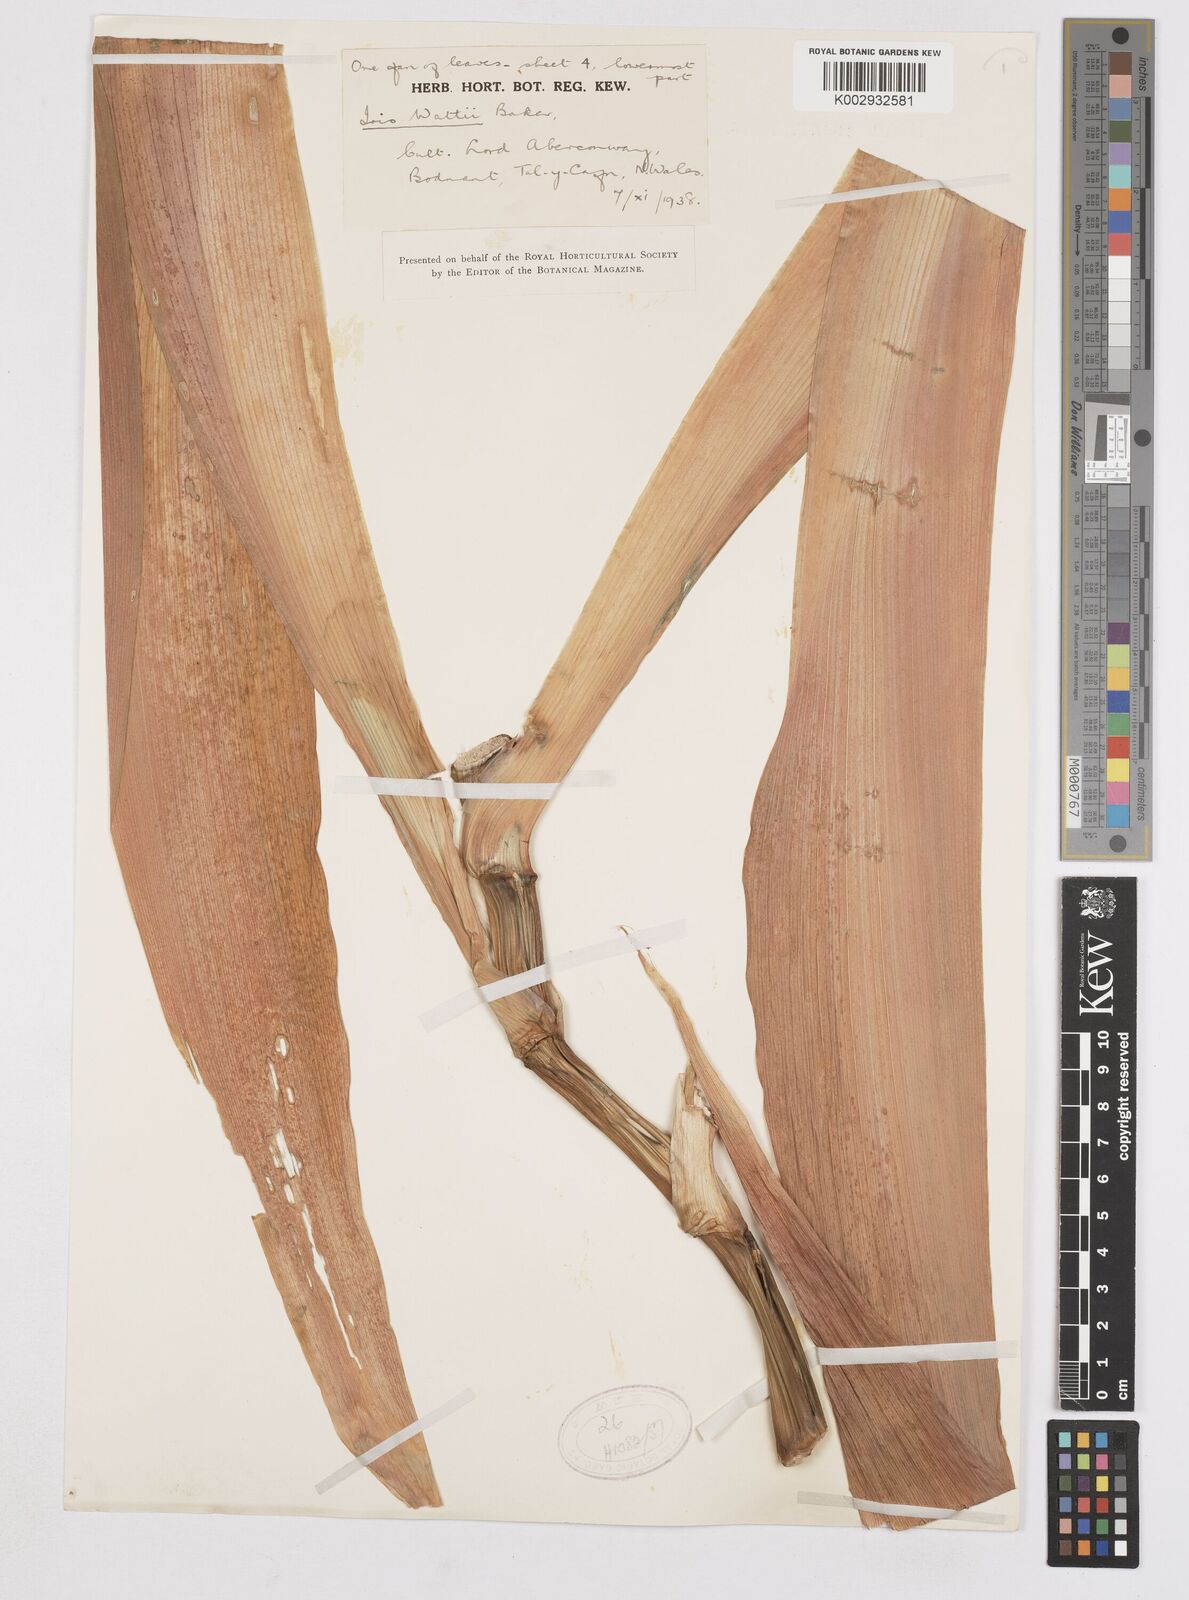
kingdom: Plantae
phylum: Tracheophyta
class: Liliopsida
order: Asparagales
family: Iridaceae
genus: Iris
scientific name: Iris wattii
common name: Fan-shape iris
